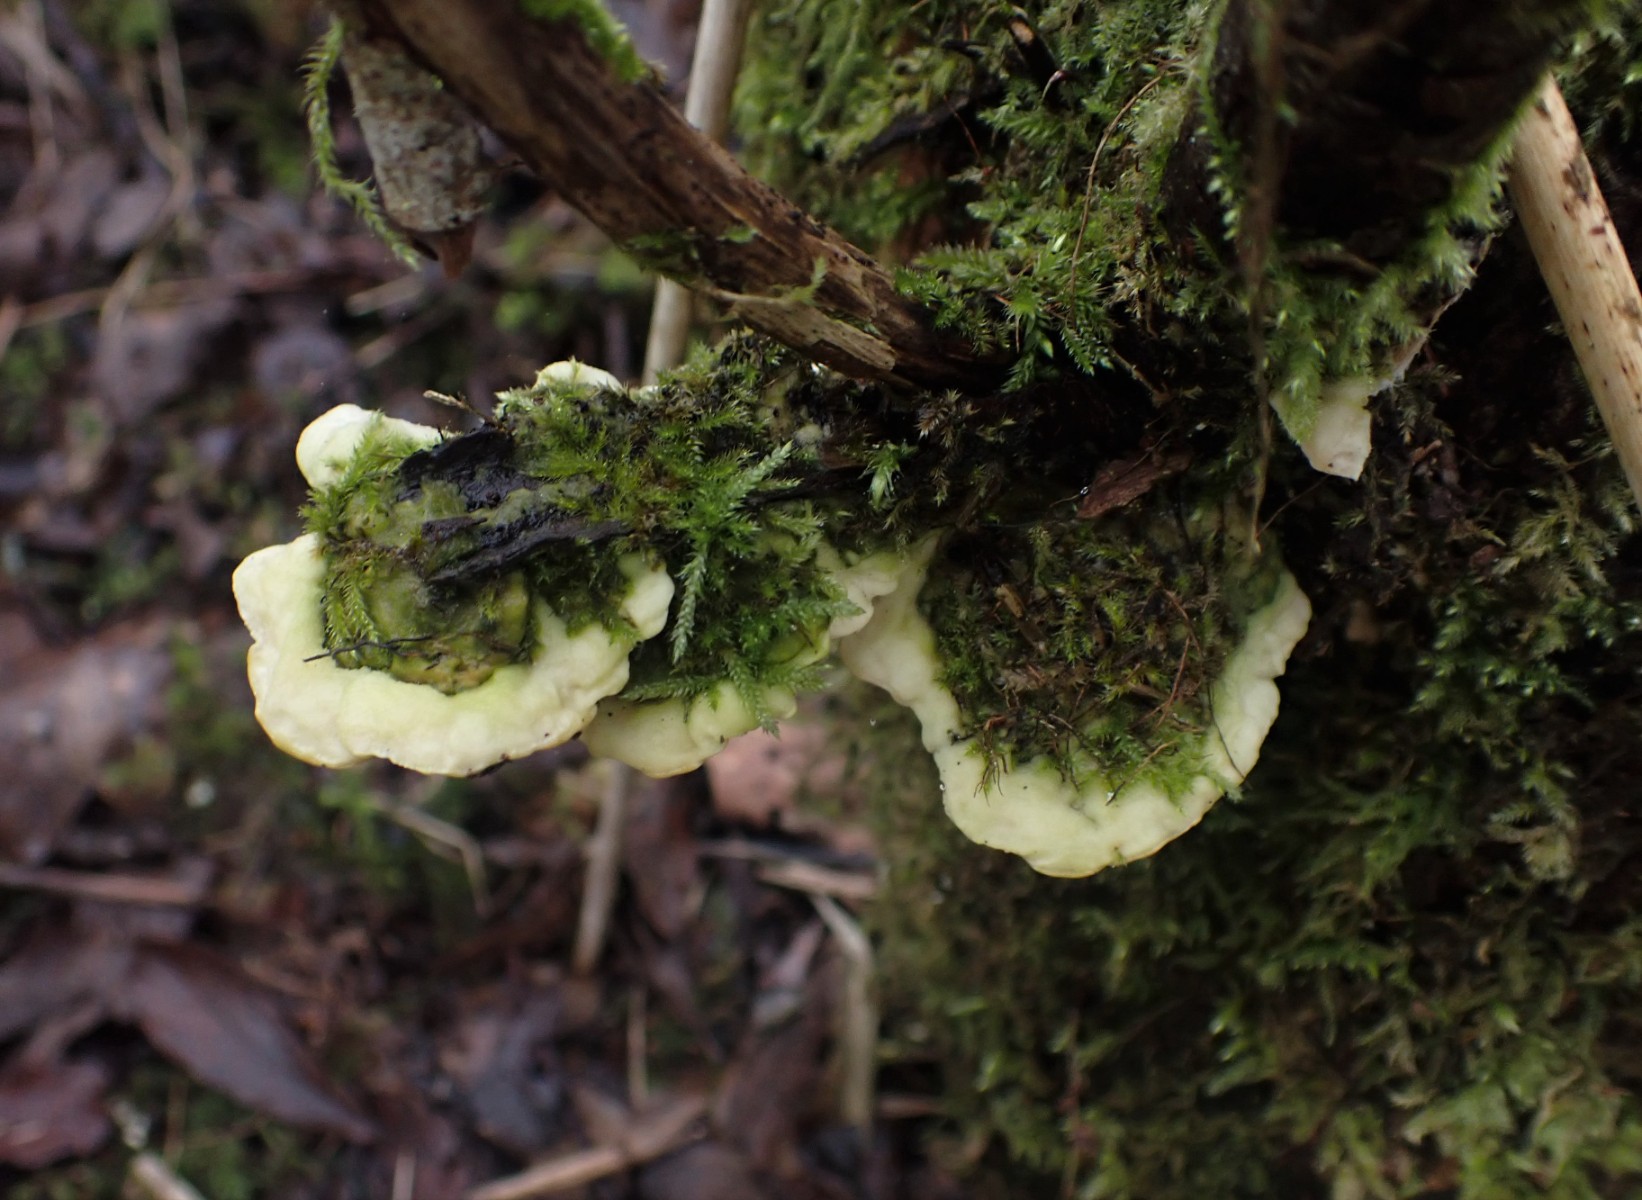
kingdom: Fungi
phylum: Basidiomycota
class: Agaricomycetes
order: Hymenochaetales
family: Oxyporaceae
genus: Oxyporus
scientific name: Oxyporus populinus
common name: sammenvokset trylleporesvamp
